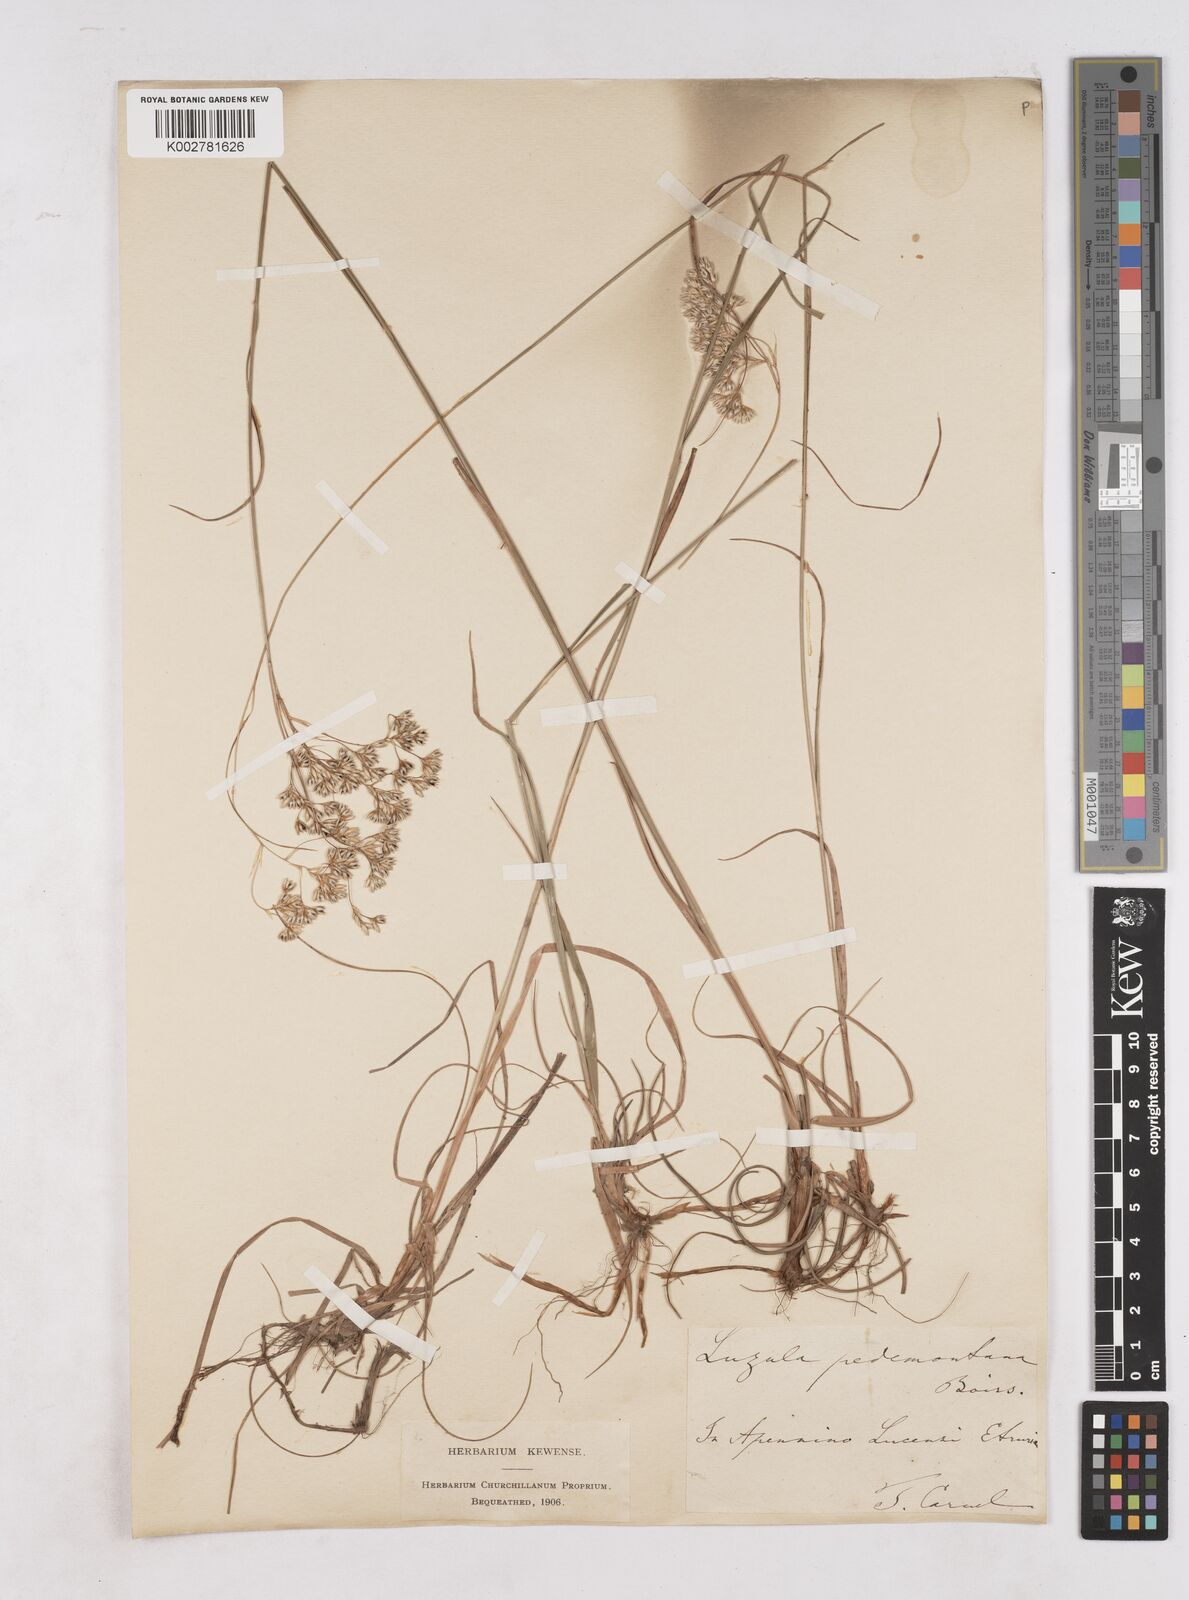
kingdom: Plantae
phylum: Tracheophyta
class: Liliopsida
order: Poales
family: Juncaceae
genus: Luzula
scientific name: Luzula pedemontana
